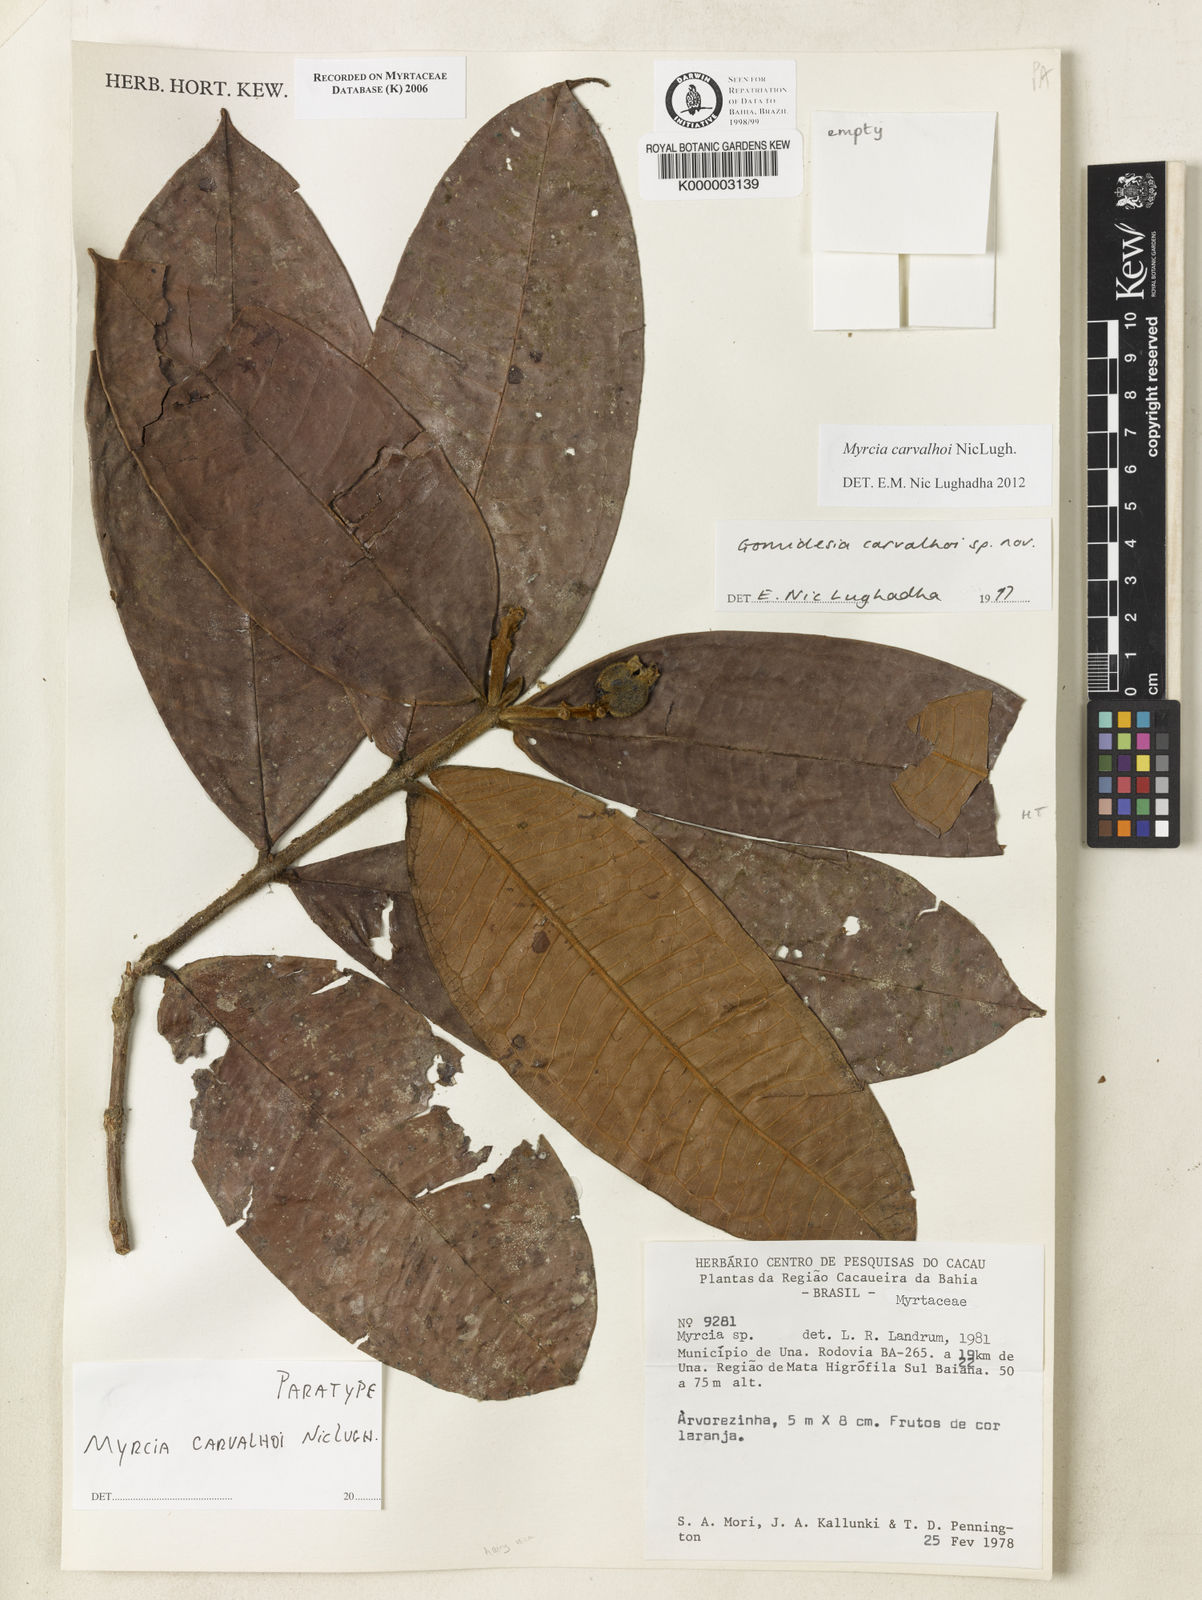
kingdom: Plantae
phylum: Tracheophyta
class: Magnoliopsida
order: Myrtales
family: Myrtaceae
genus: Myrcia
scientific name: Myrcia carvalhoi
